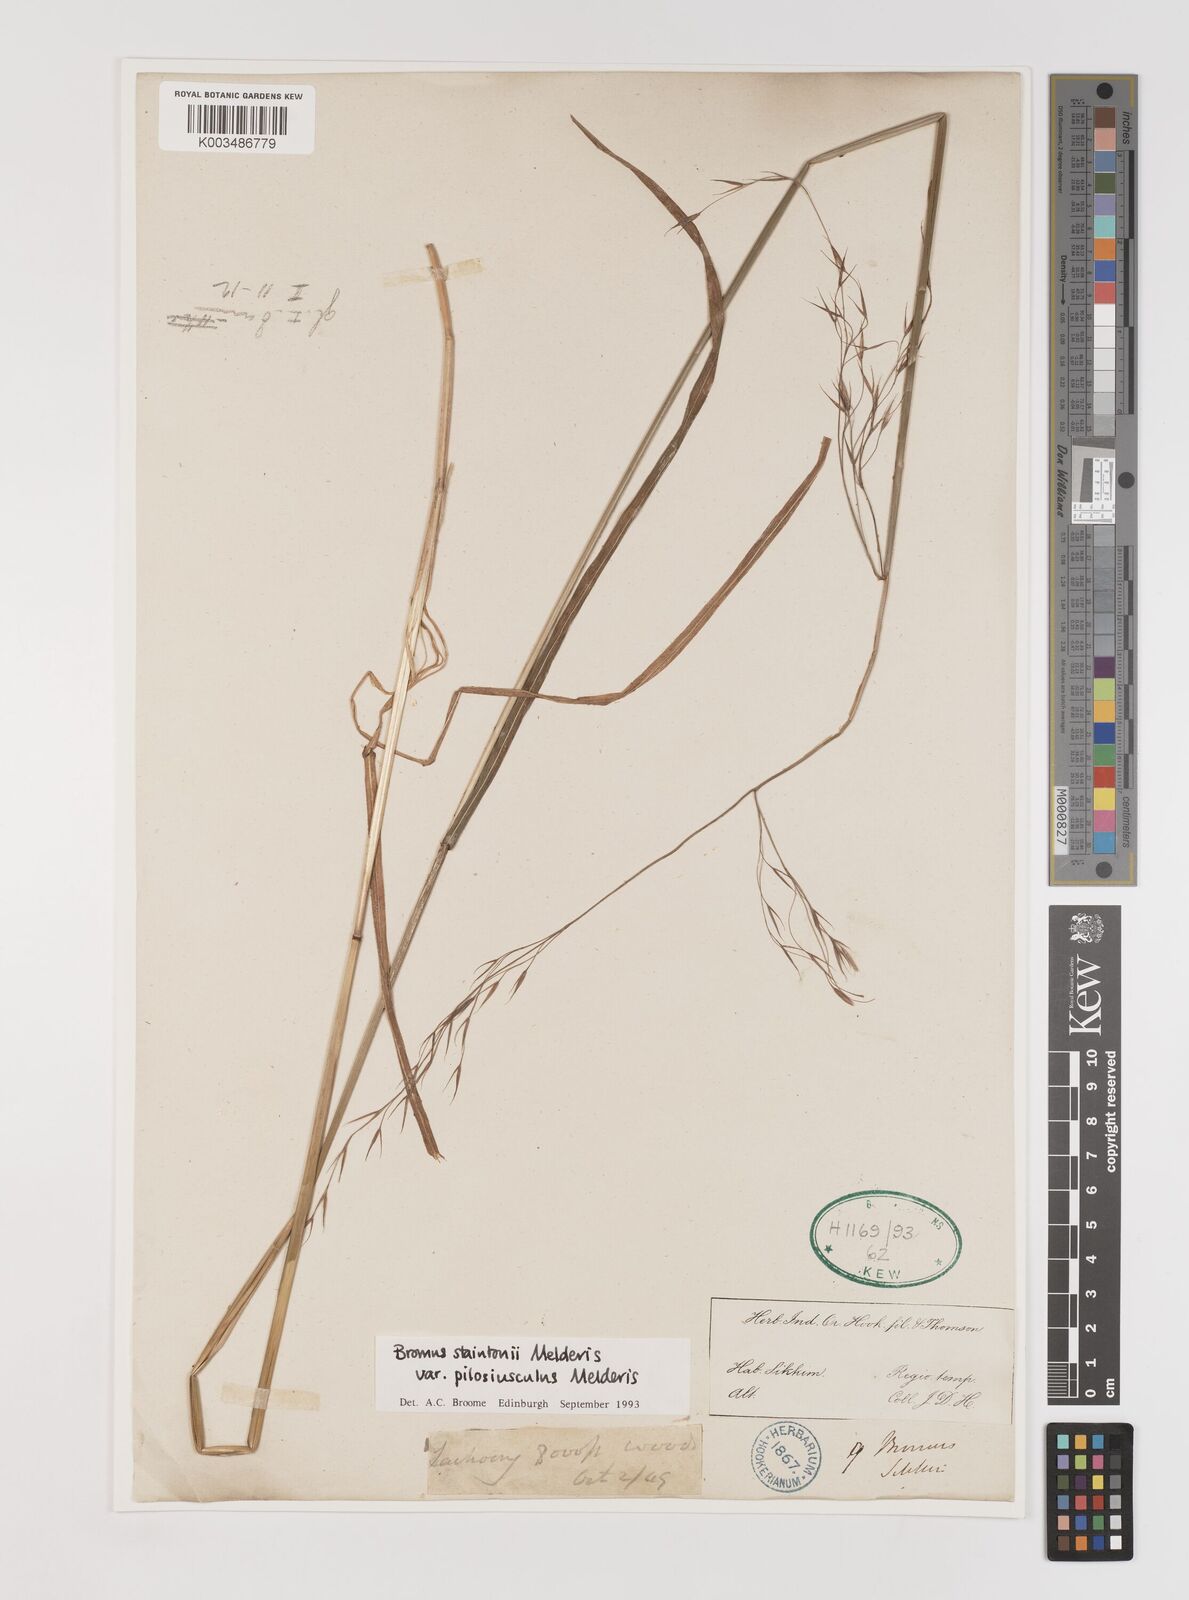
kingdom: Plantae
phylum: Tracheophyta
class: Liliopsida
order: Poales
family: Poaceae
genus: Bromus
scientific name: Bromus staintonii
